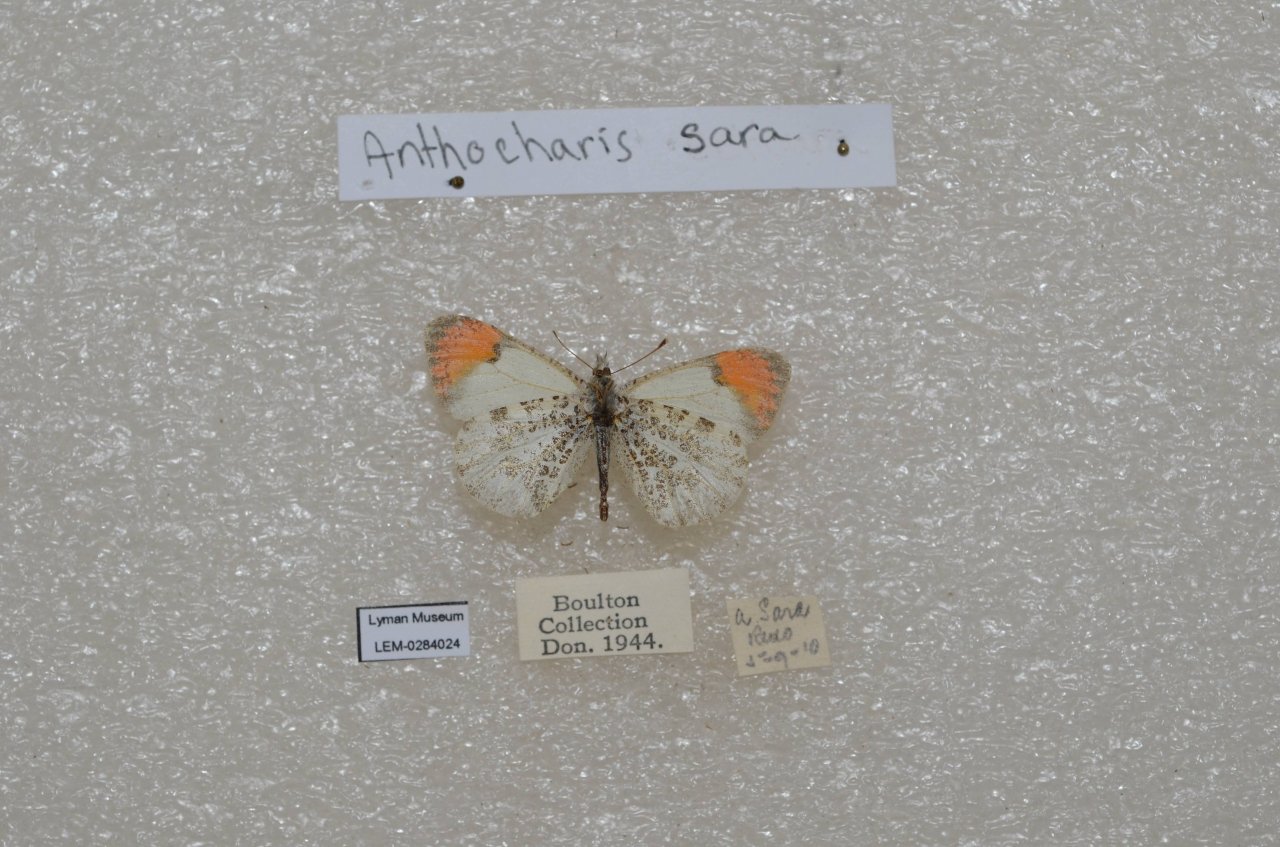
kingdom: Animalia
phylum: Arthropoda
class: Insecta
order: Lepidoptera
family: Pieridae
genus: Anthocharis
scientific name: Anthocharis sara
